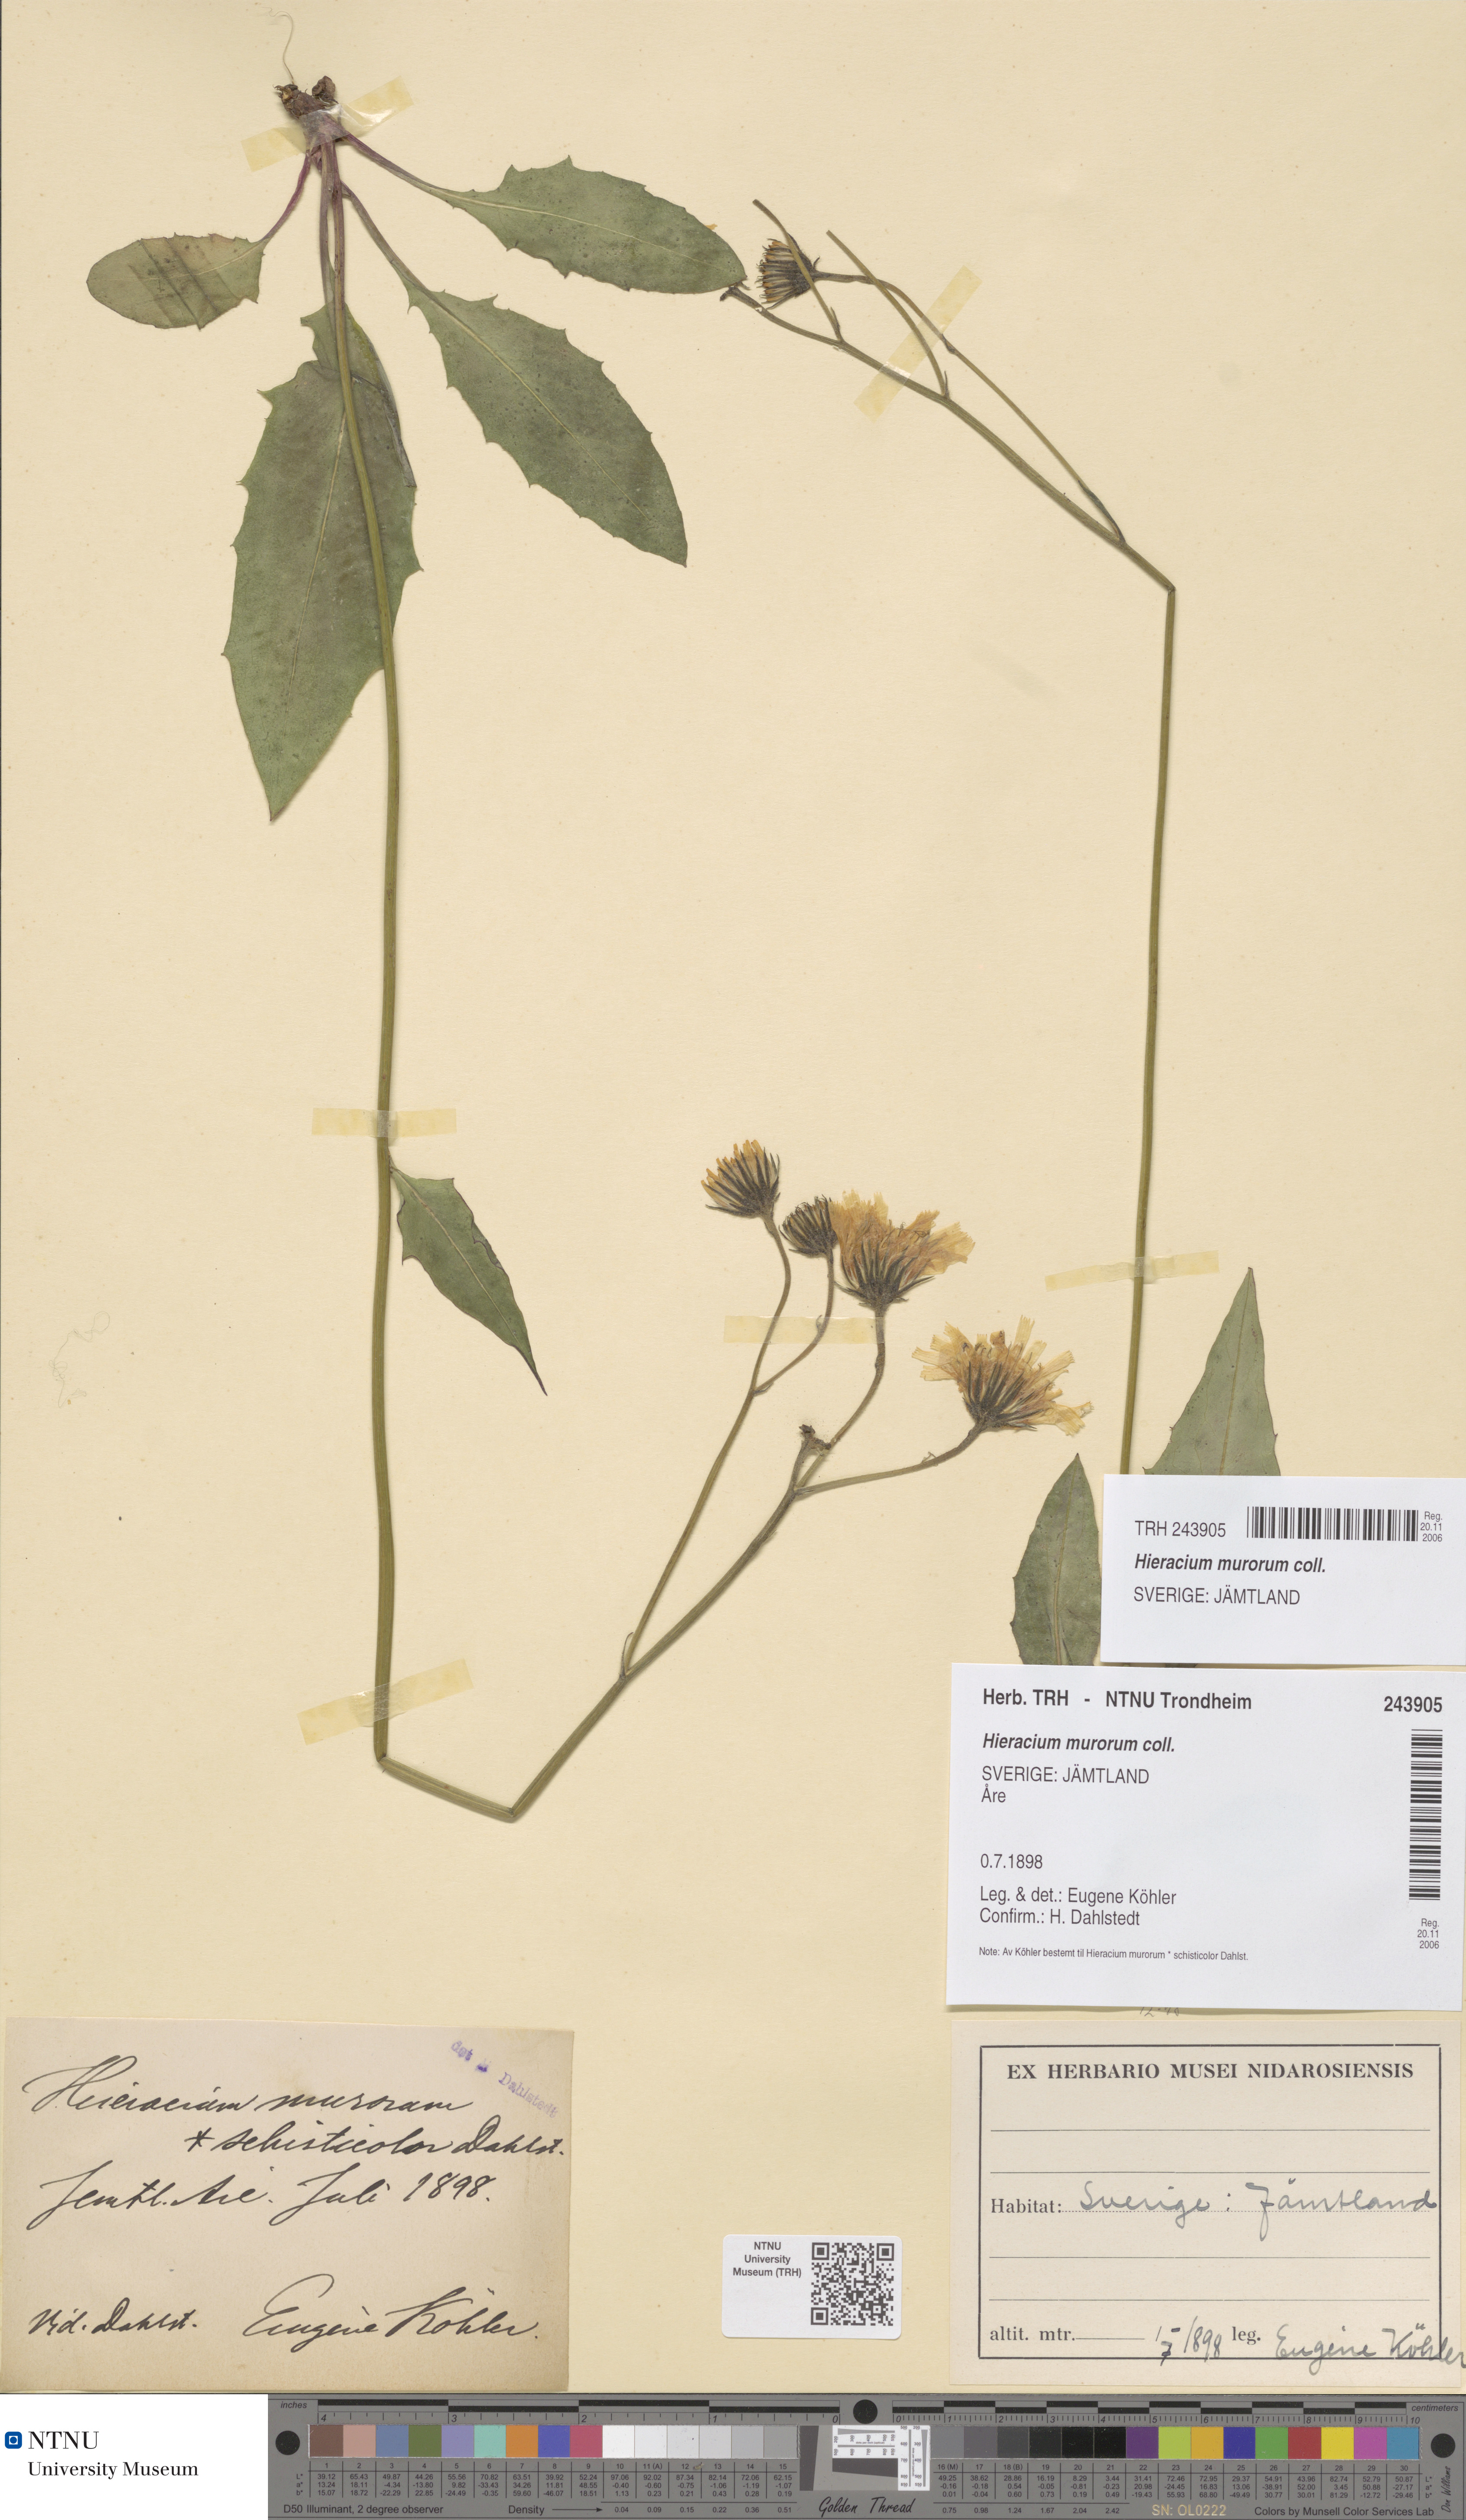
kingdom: Plantae
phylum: Tracheophyta
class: Magnoliopsida
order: Asterales
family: Asteraceae
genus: Hieracium
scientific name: Hieracium murorum
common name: Wall hawkweed
